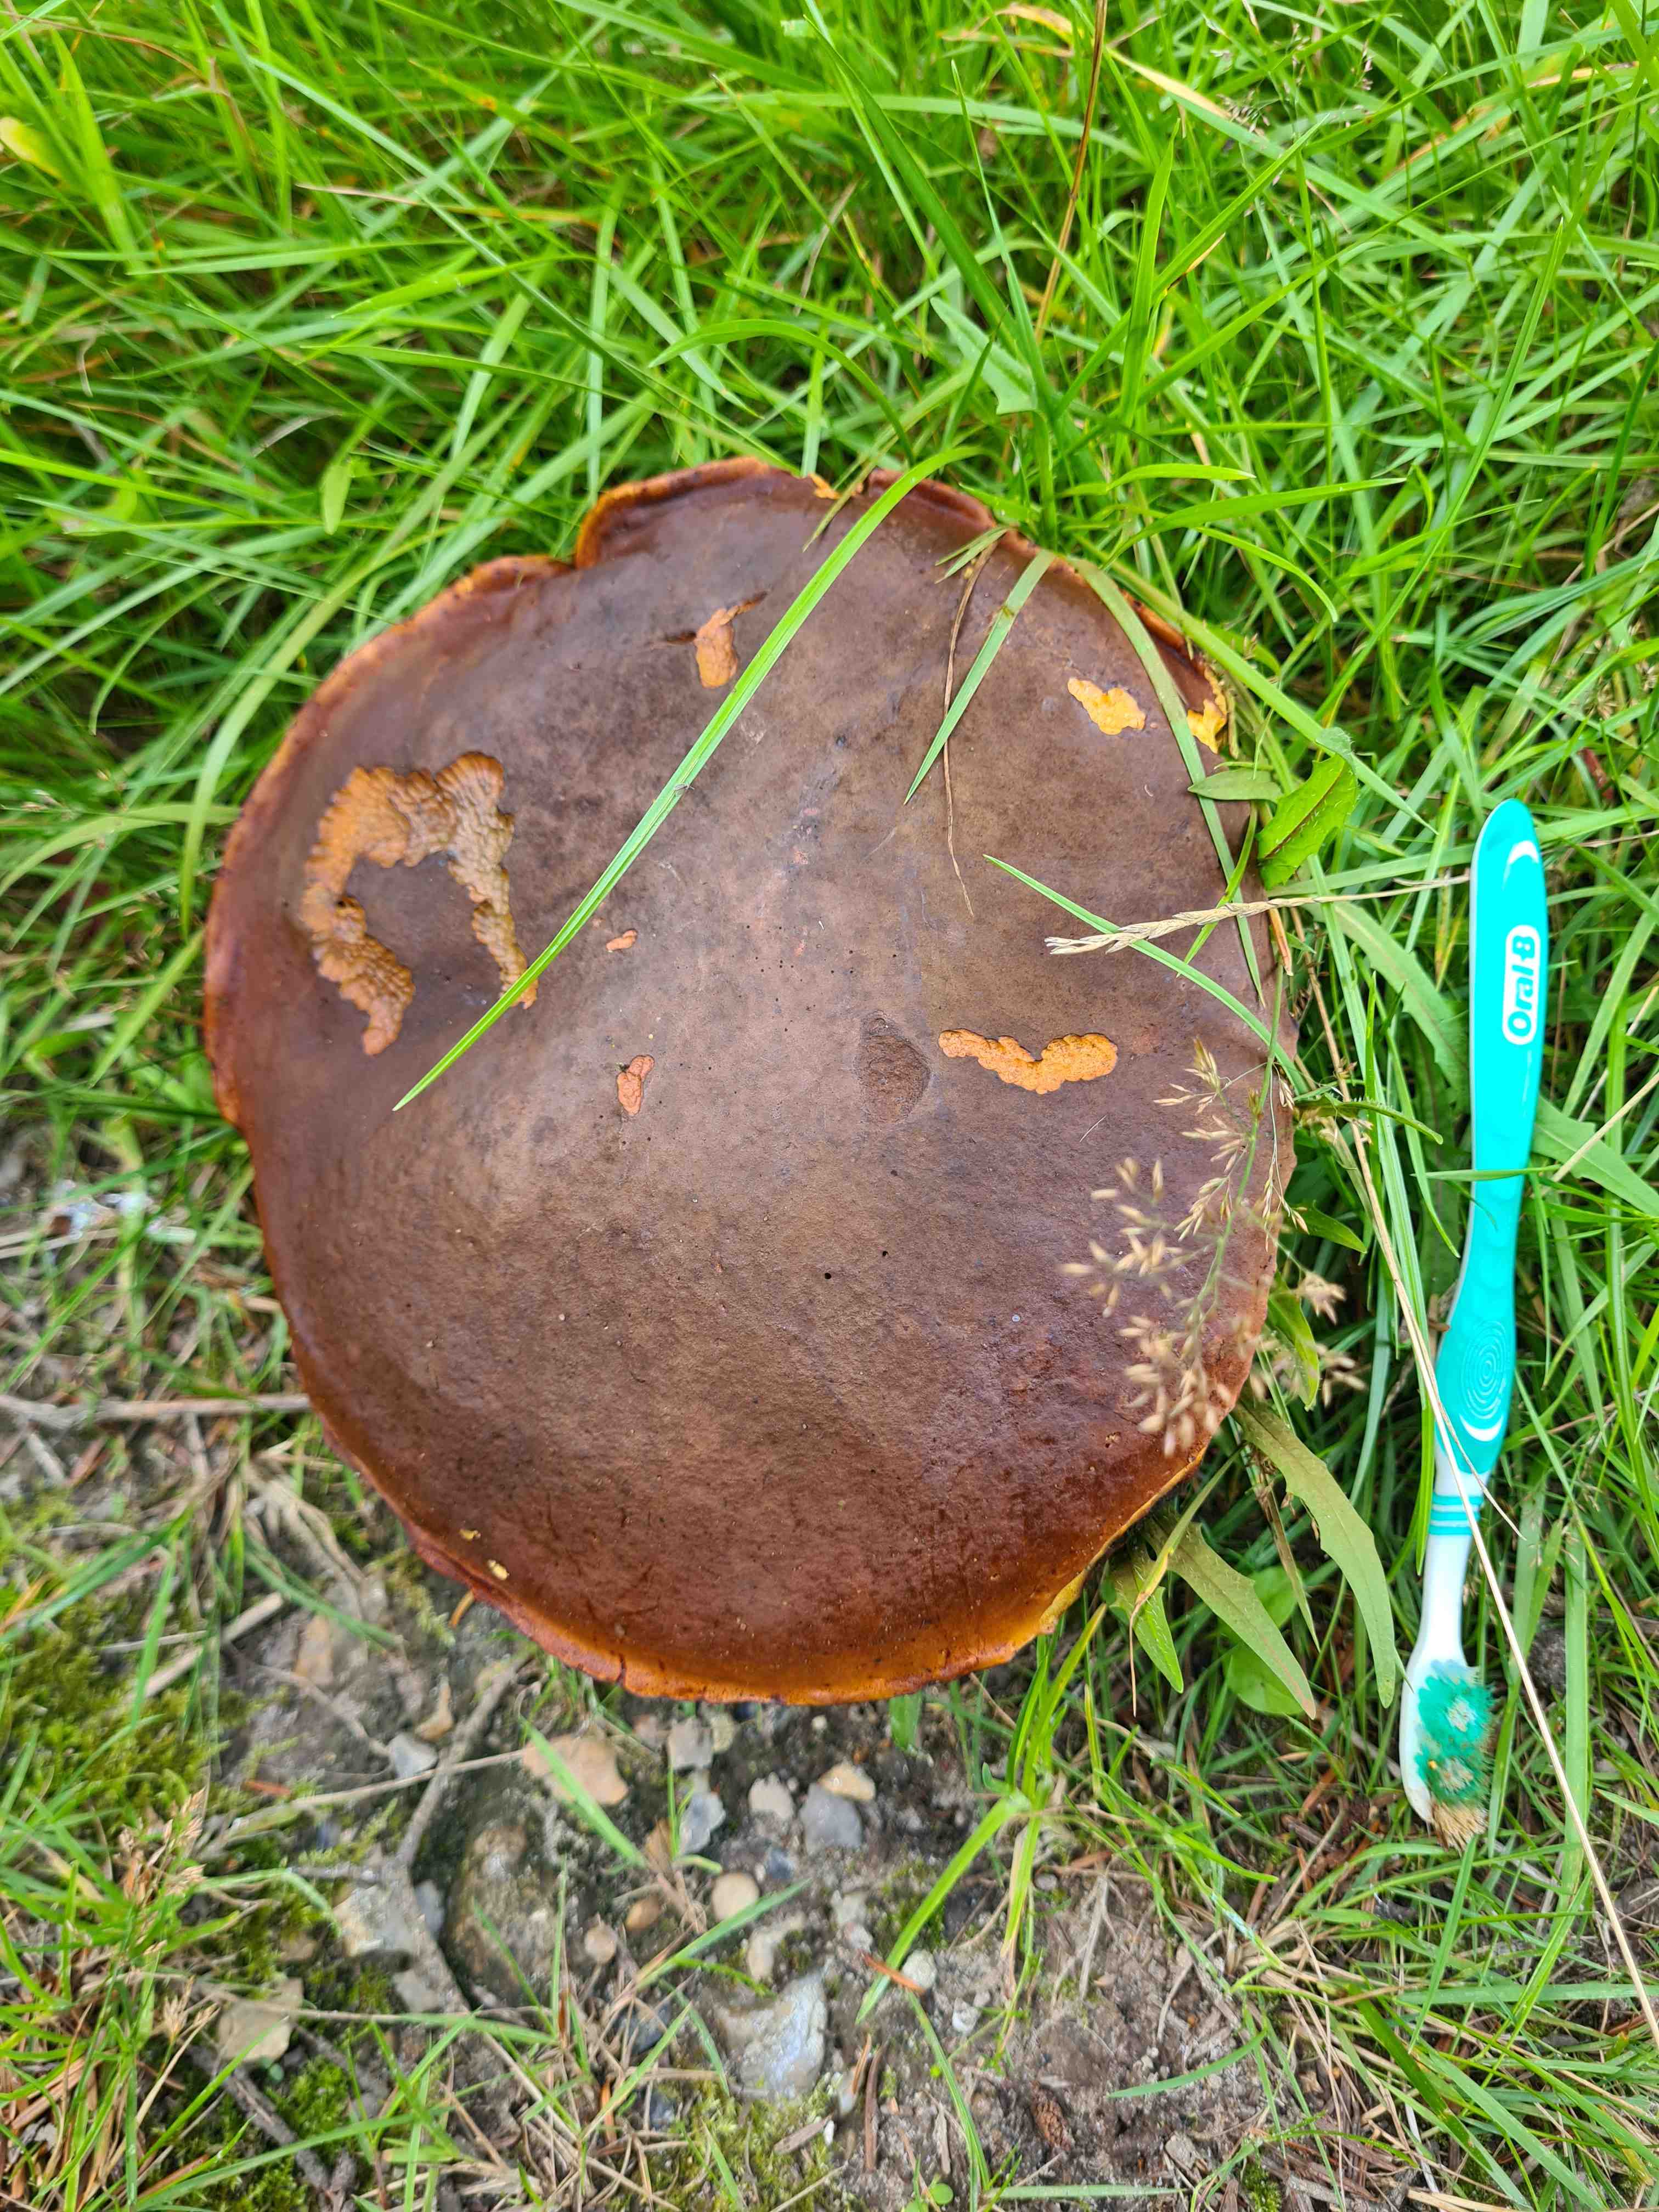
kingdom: Fungi
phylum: Basidiomycota
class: Agaricomycetes
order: Boletales
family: Boletaceae
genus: Neoboletus
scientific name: Neoboletus erythropus
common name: punktstokket indigorørhat
